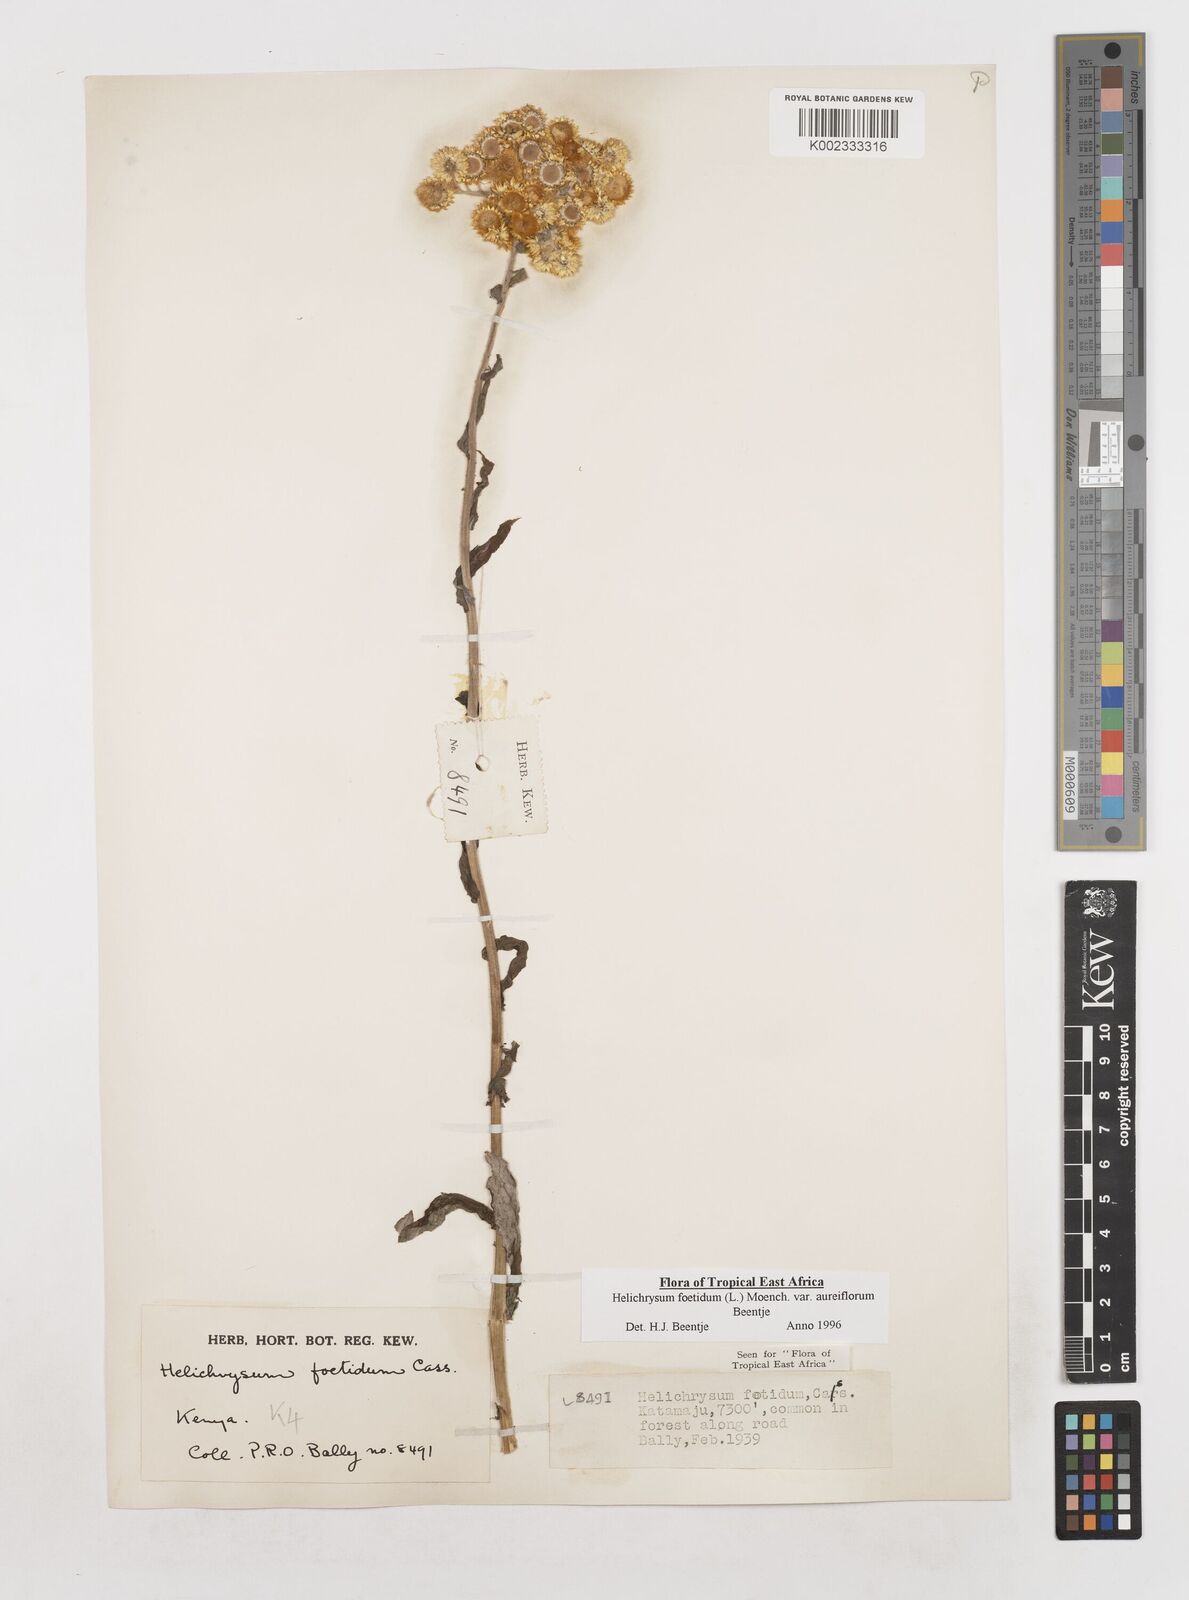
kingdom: Plantae
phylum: Tracheophyta
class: Magnoliopsida
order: Asterales
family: Asteraceae
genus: Helichrysum
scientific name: Helichrysum foetidum
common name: Stinking everlasting
